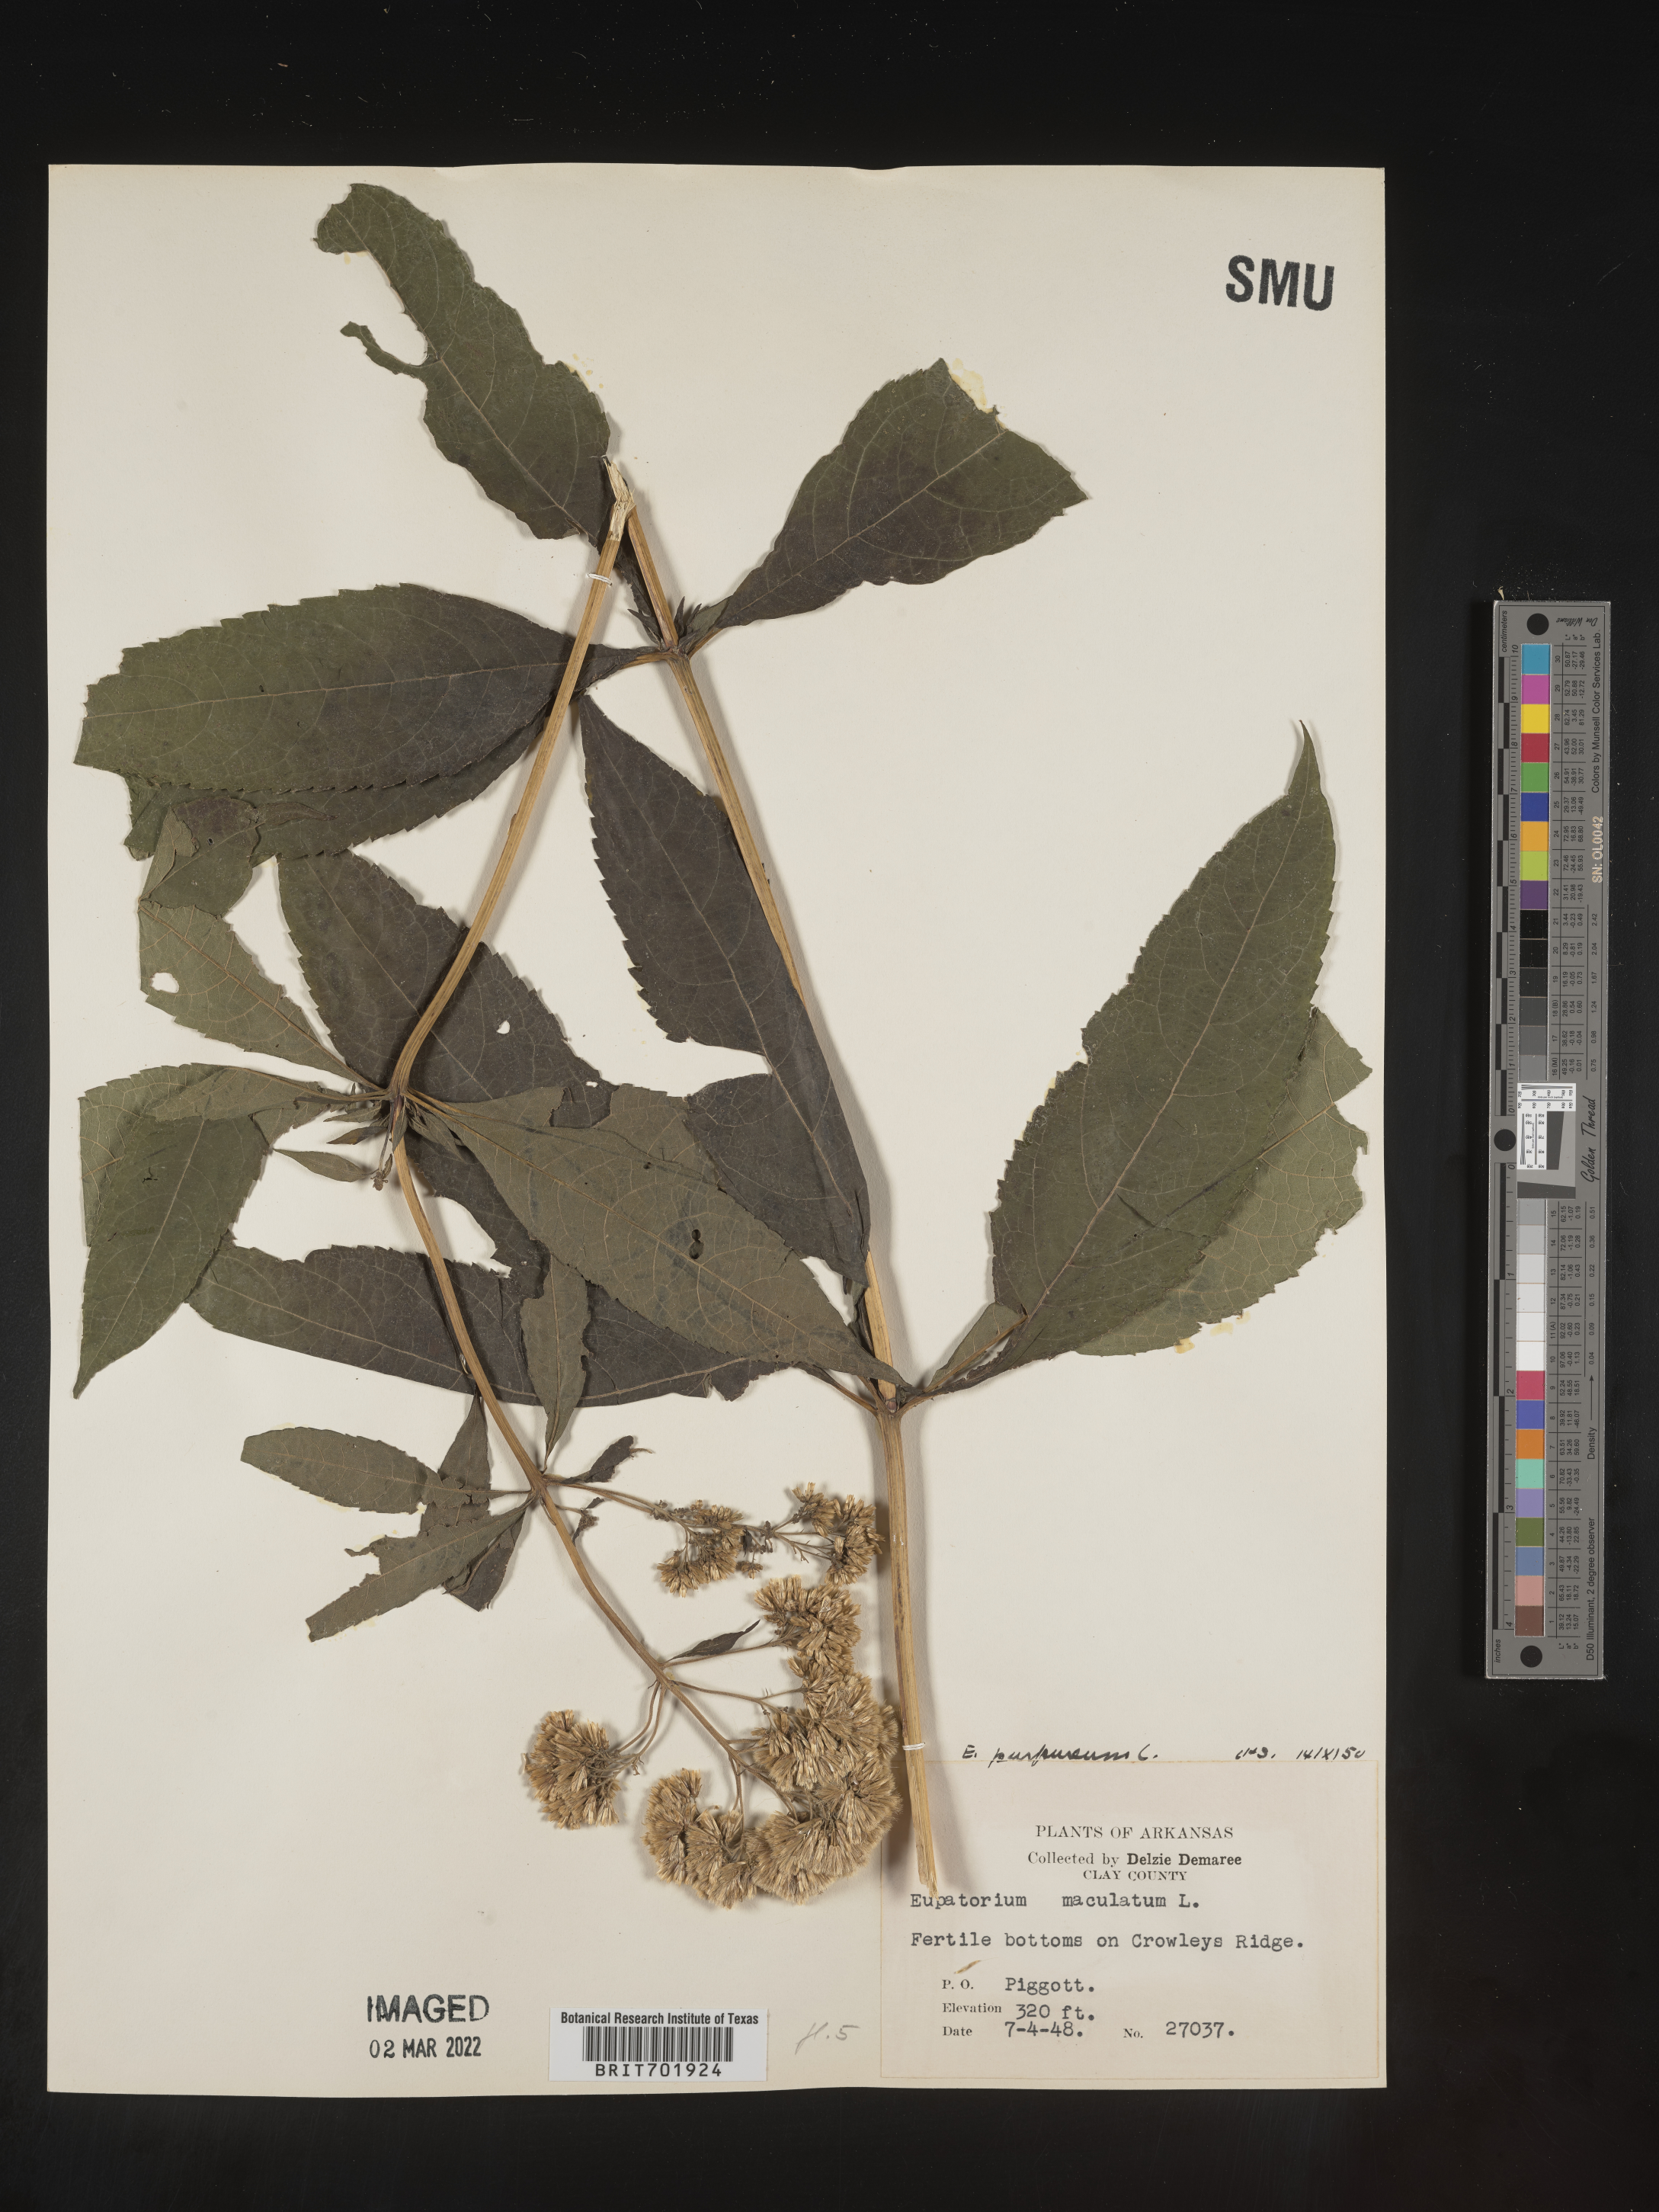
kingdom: Plantae
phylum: Tracheophyta
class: Magnoliopsida
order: Asterales
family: Asteraceae
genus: Eupatorium
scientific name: Eupatorium quaternum
